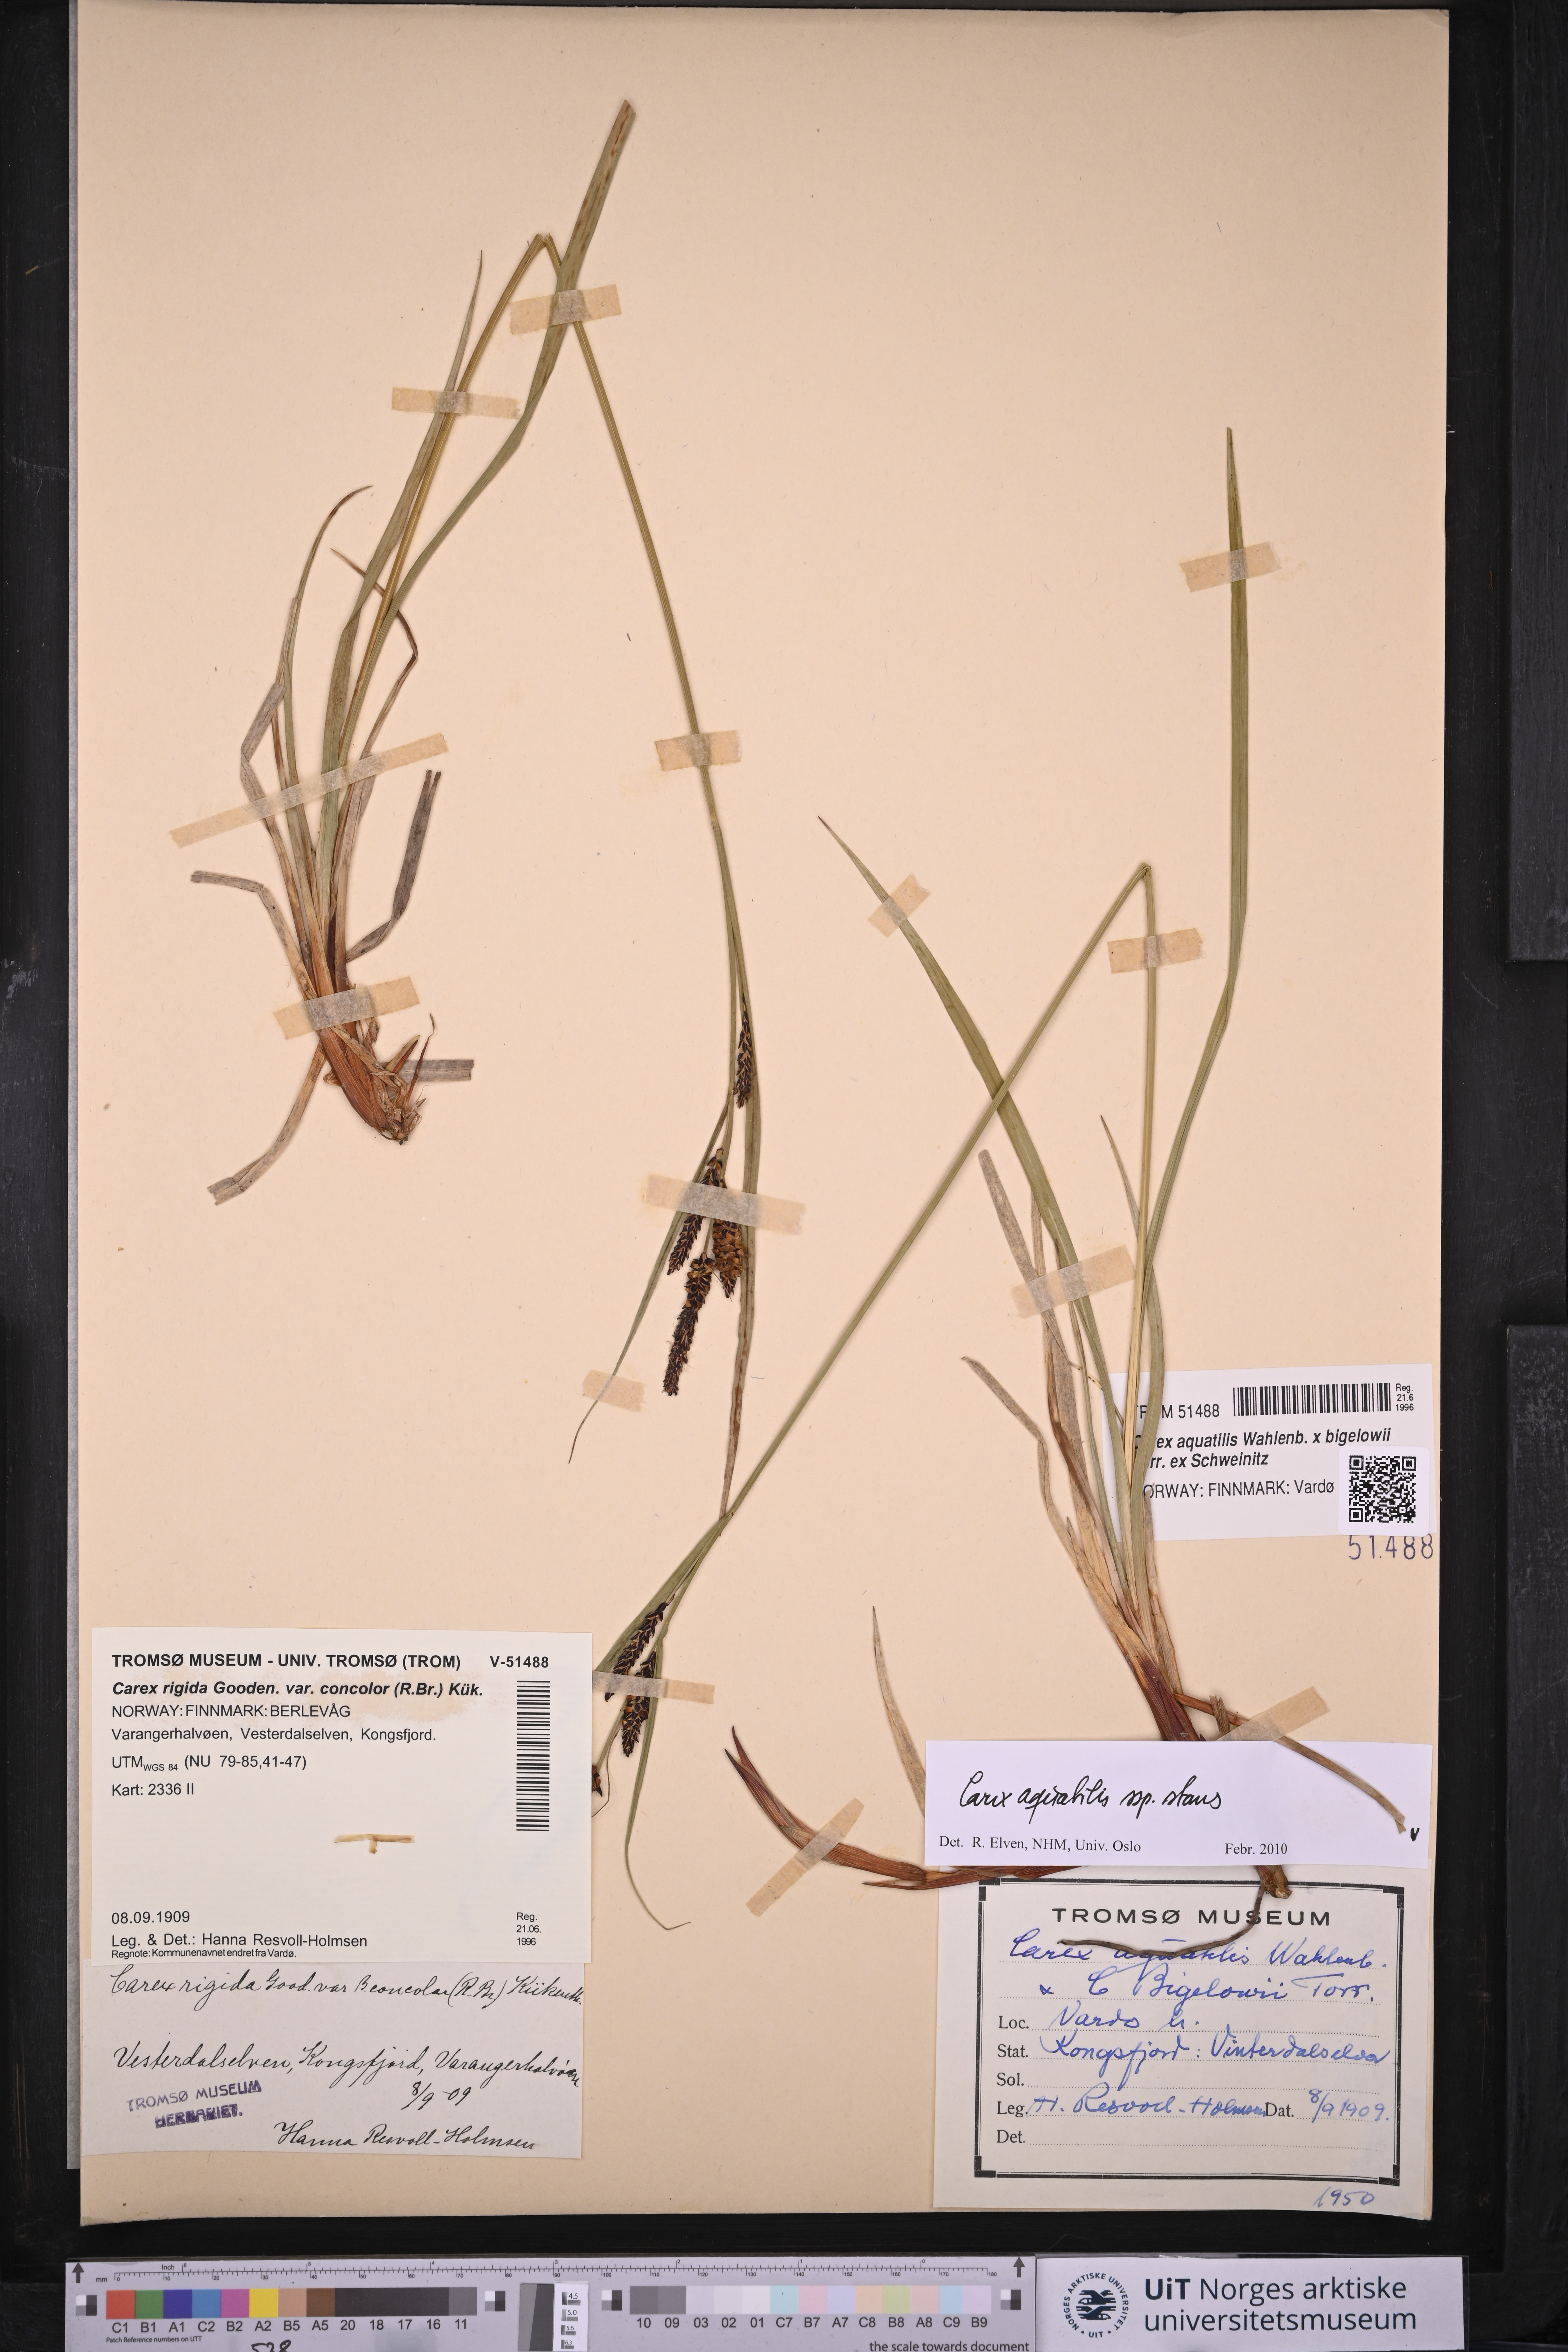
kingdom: Plantae
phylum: Tracheophyta
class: Liliopsida
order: Poales
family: Cyperaceae
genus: Carex
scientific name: Carex aquatilis
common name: Water sedge
